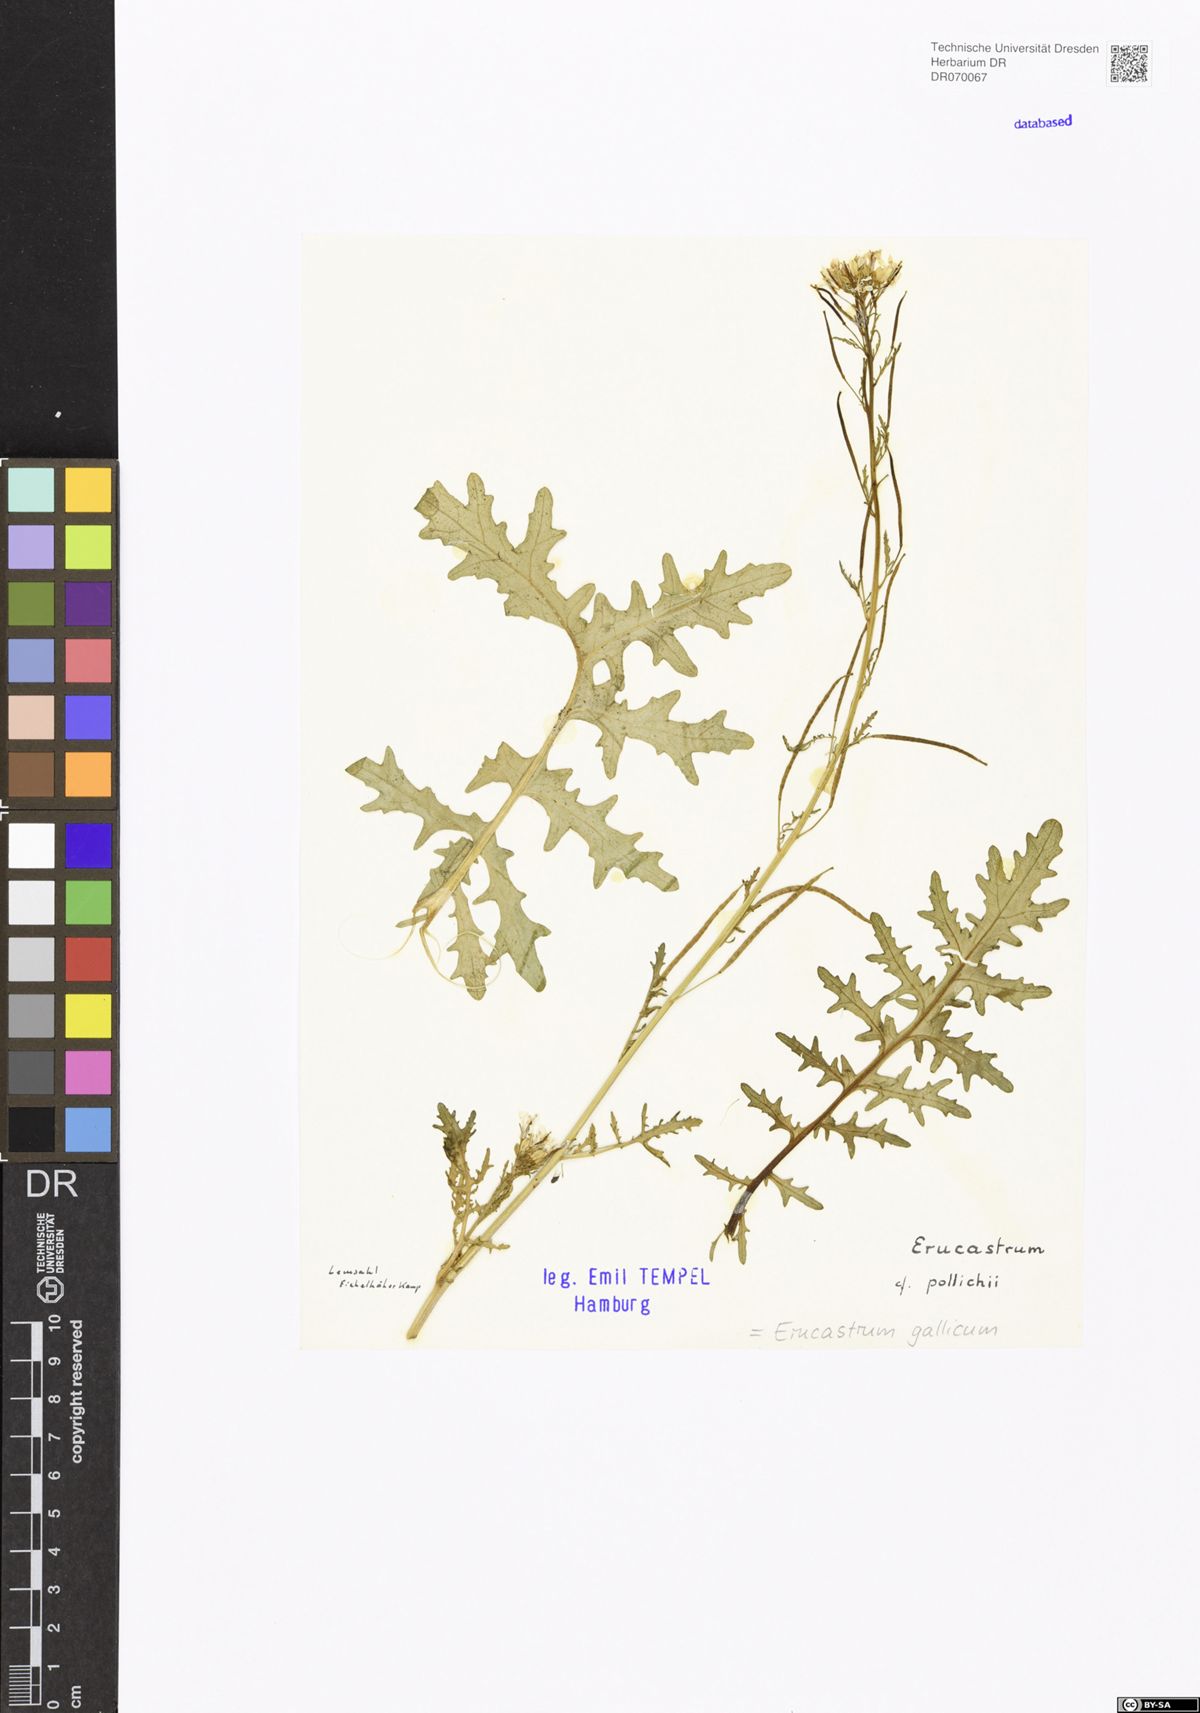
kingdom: Plantae
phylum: Tracheophyta
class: Magnoliopsida
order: Brassicales
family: Brassicaceae
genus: Erucastrum
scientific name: Erucastrum gallicum
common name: Hairy rocket
